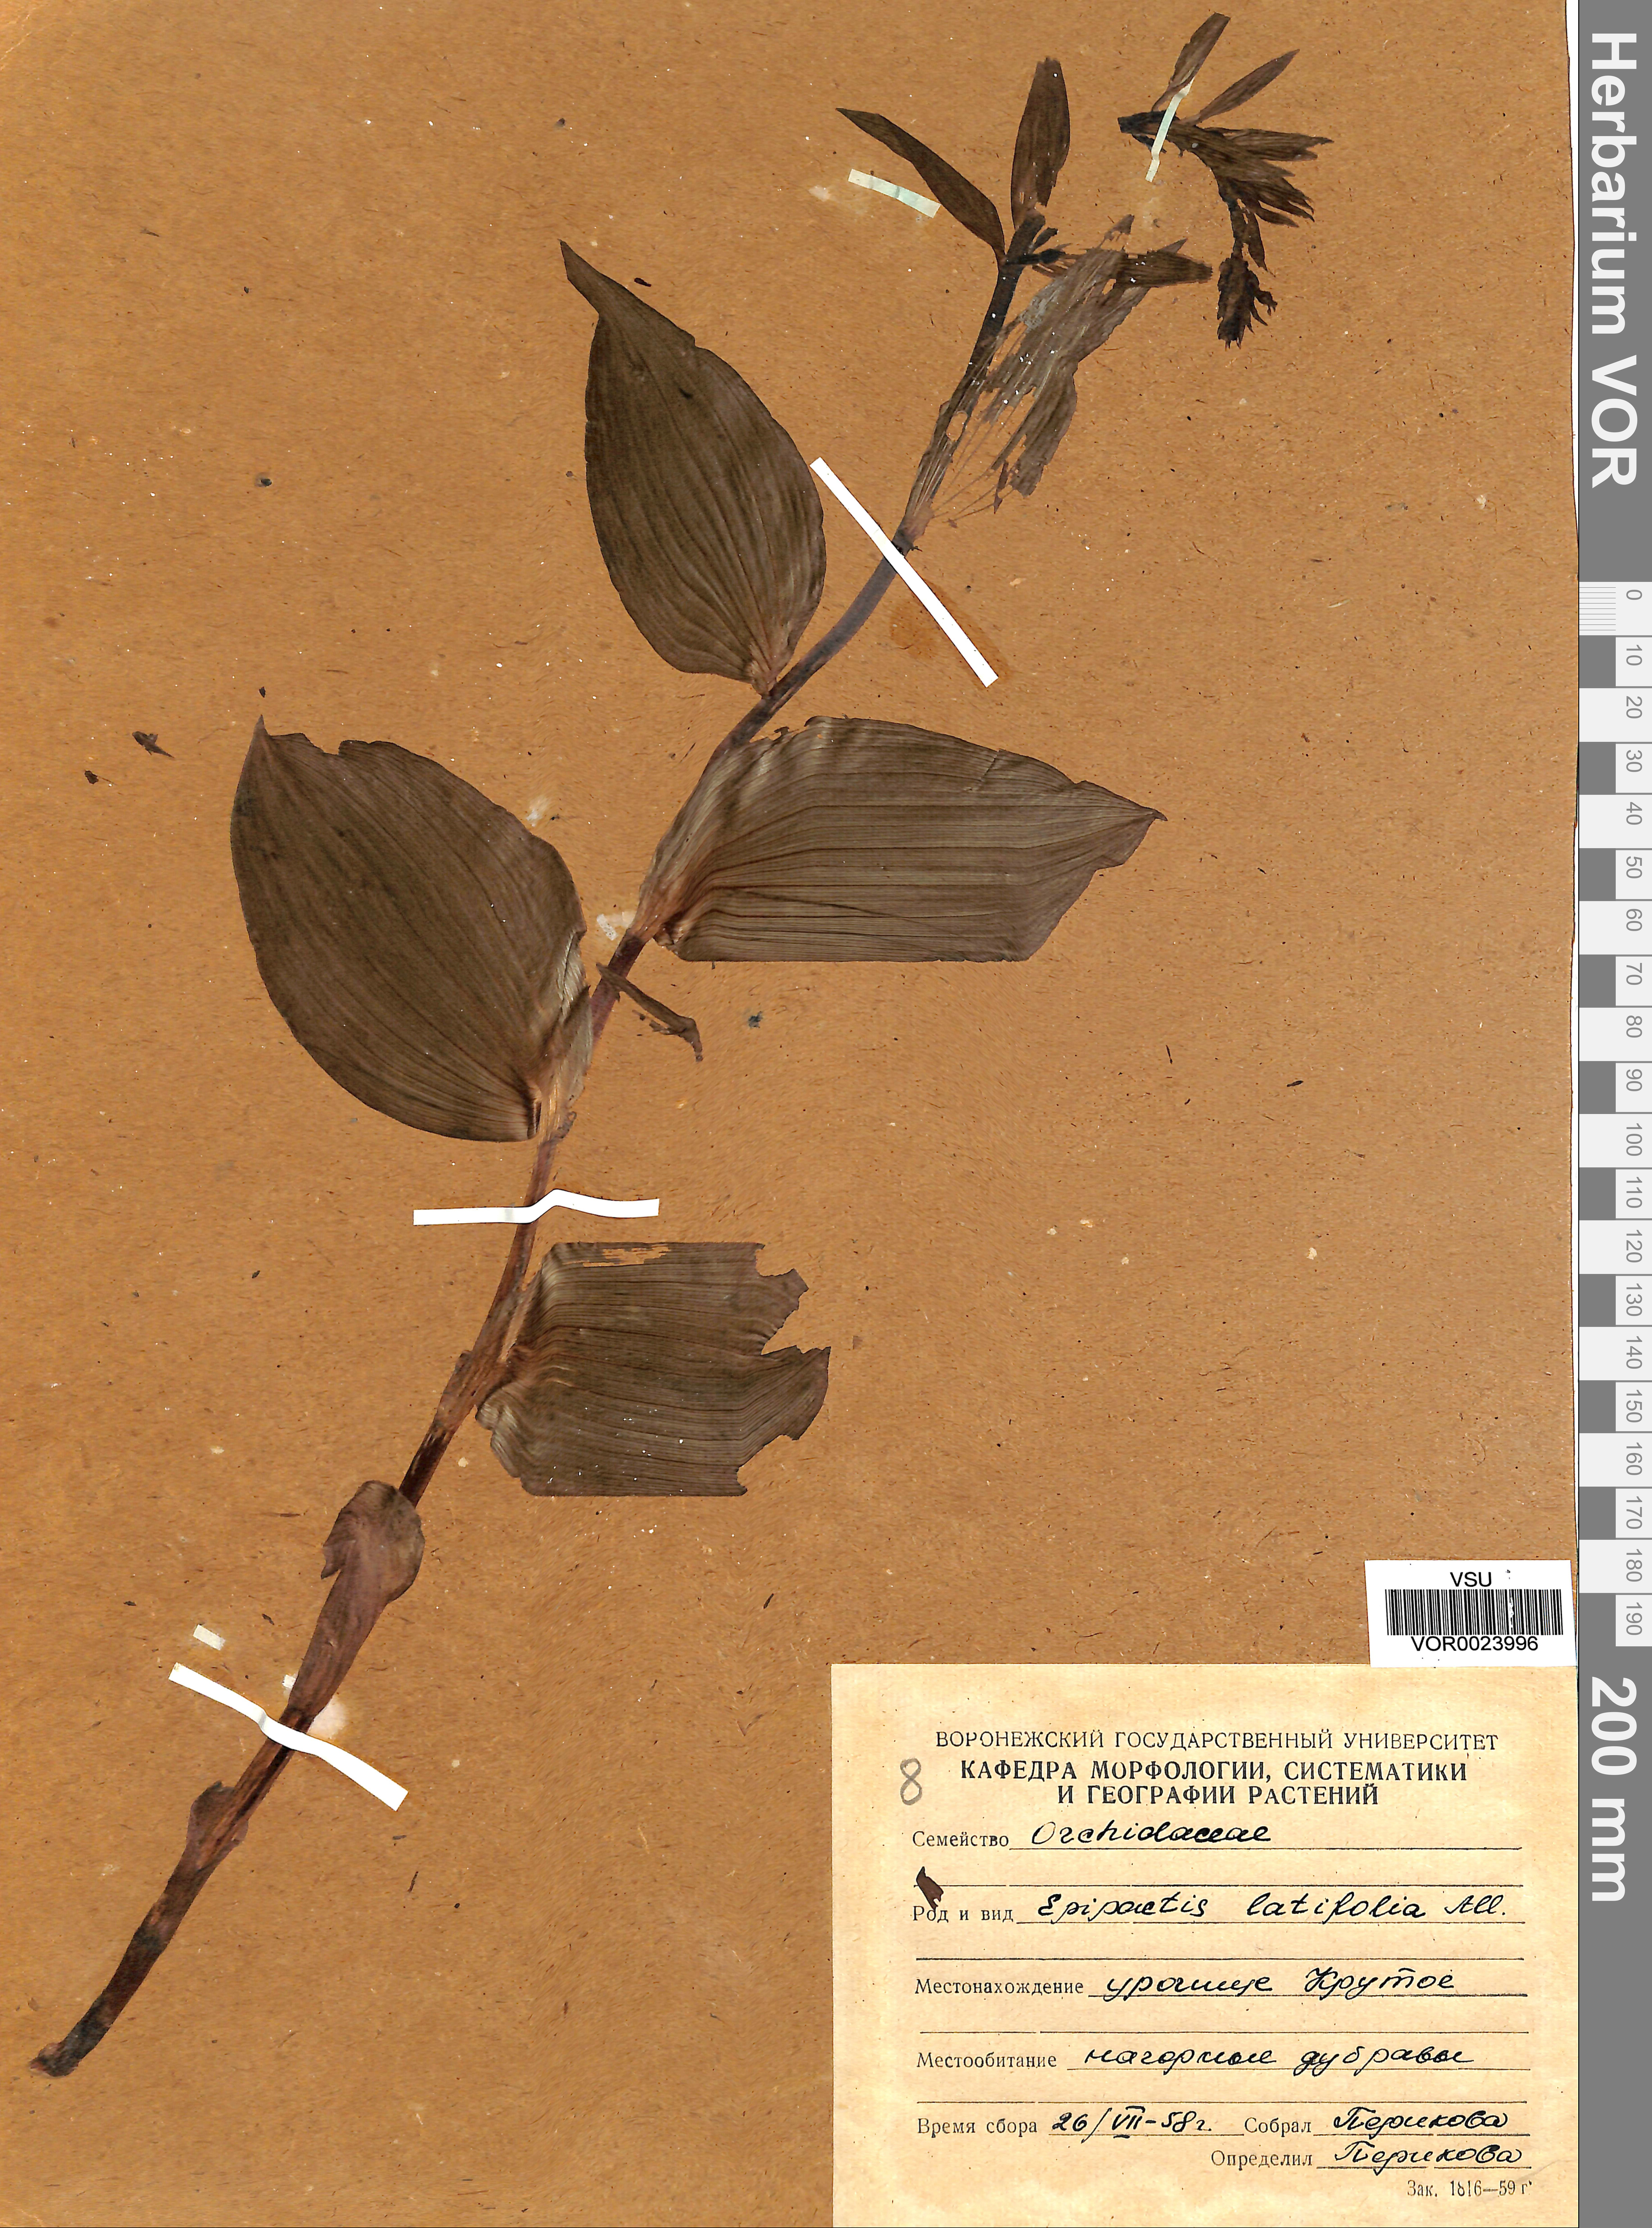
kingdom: Plantae
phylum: Tracheophyta
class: Liliopsida
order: Asparagales
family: Orchidaceae
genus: Epipactis
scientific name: Epipactis helleborine
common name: Broad-leaved helleborine
